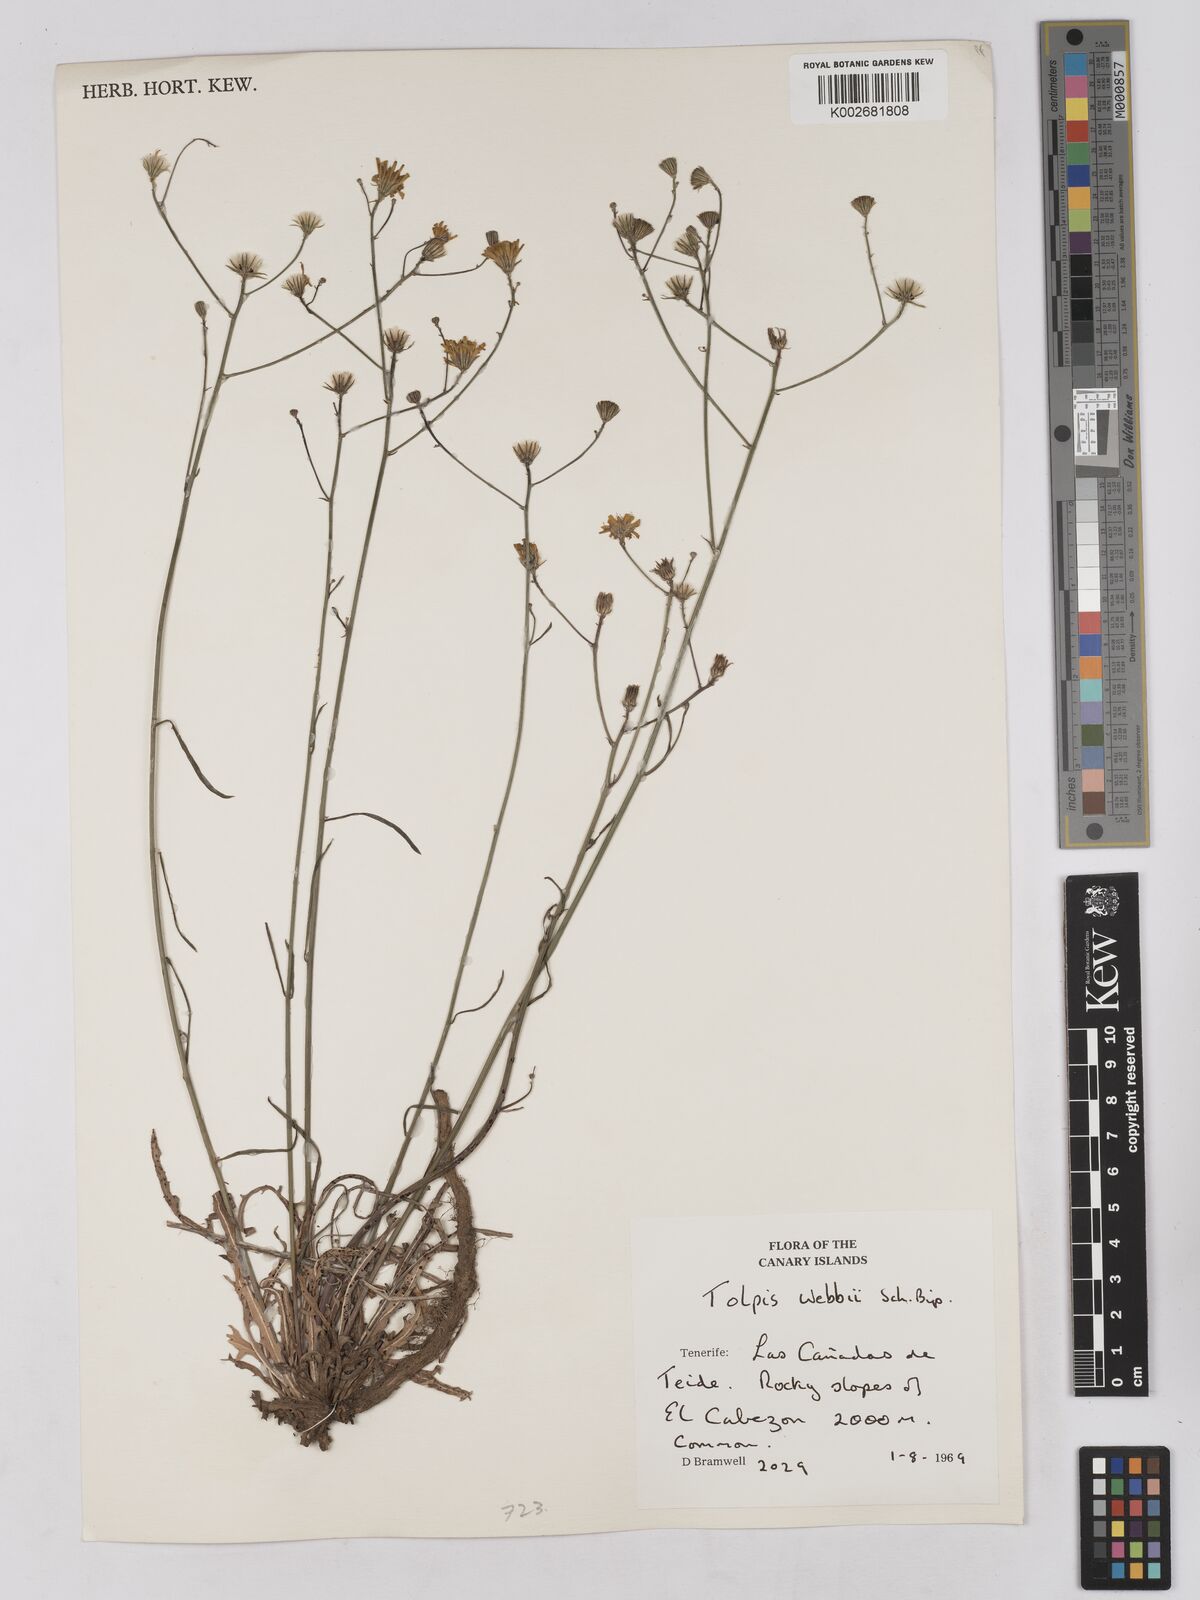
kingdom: Plantae
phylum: Tracheophyta
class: Magnoliopsida
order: Asterales
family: Asteraceae
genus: Tolpis
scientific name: Tolpis webbii
